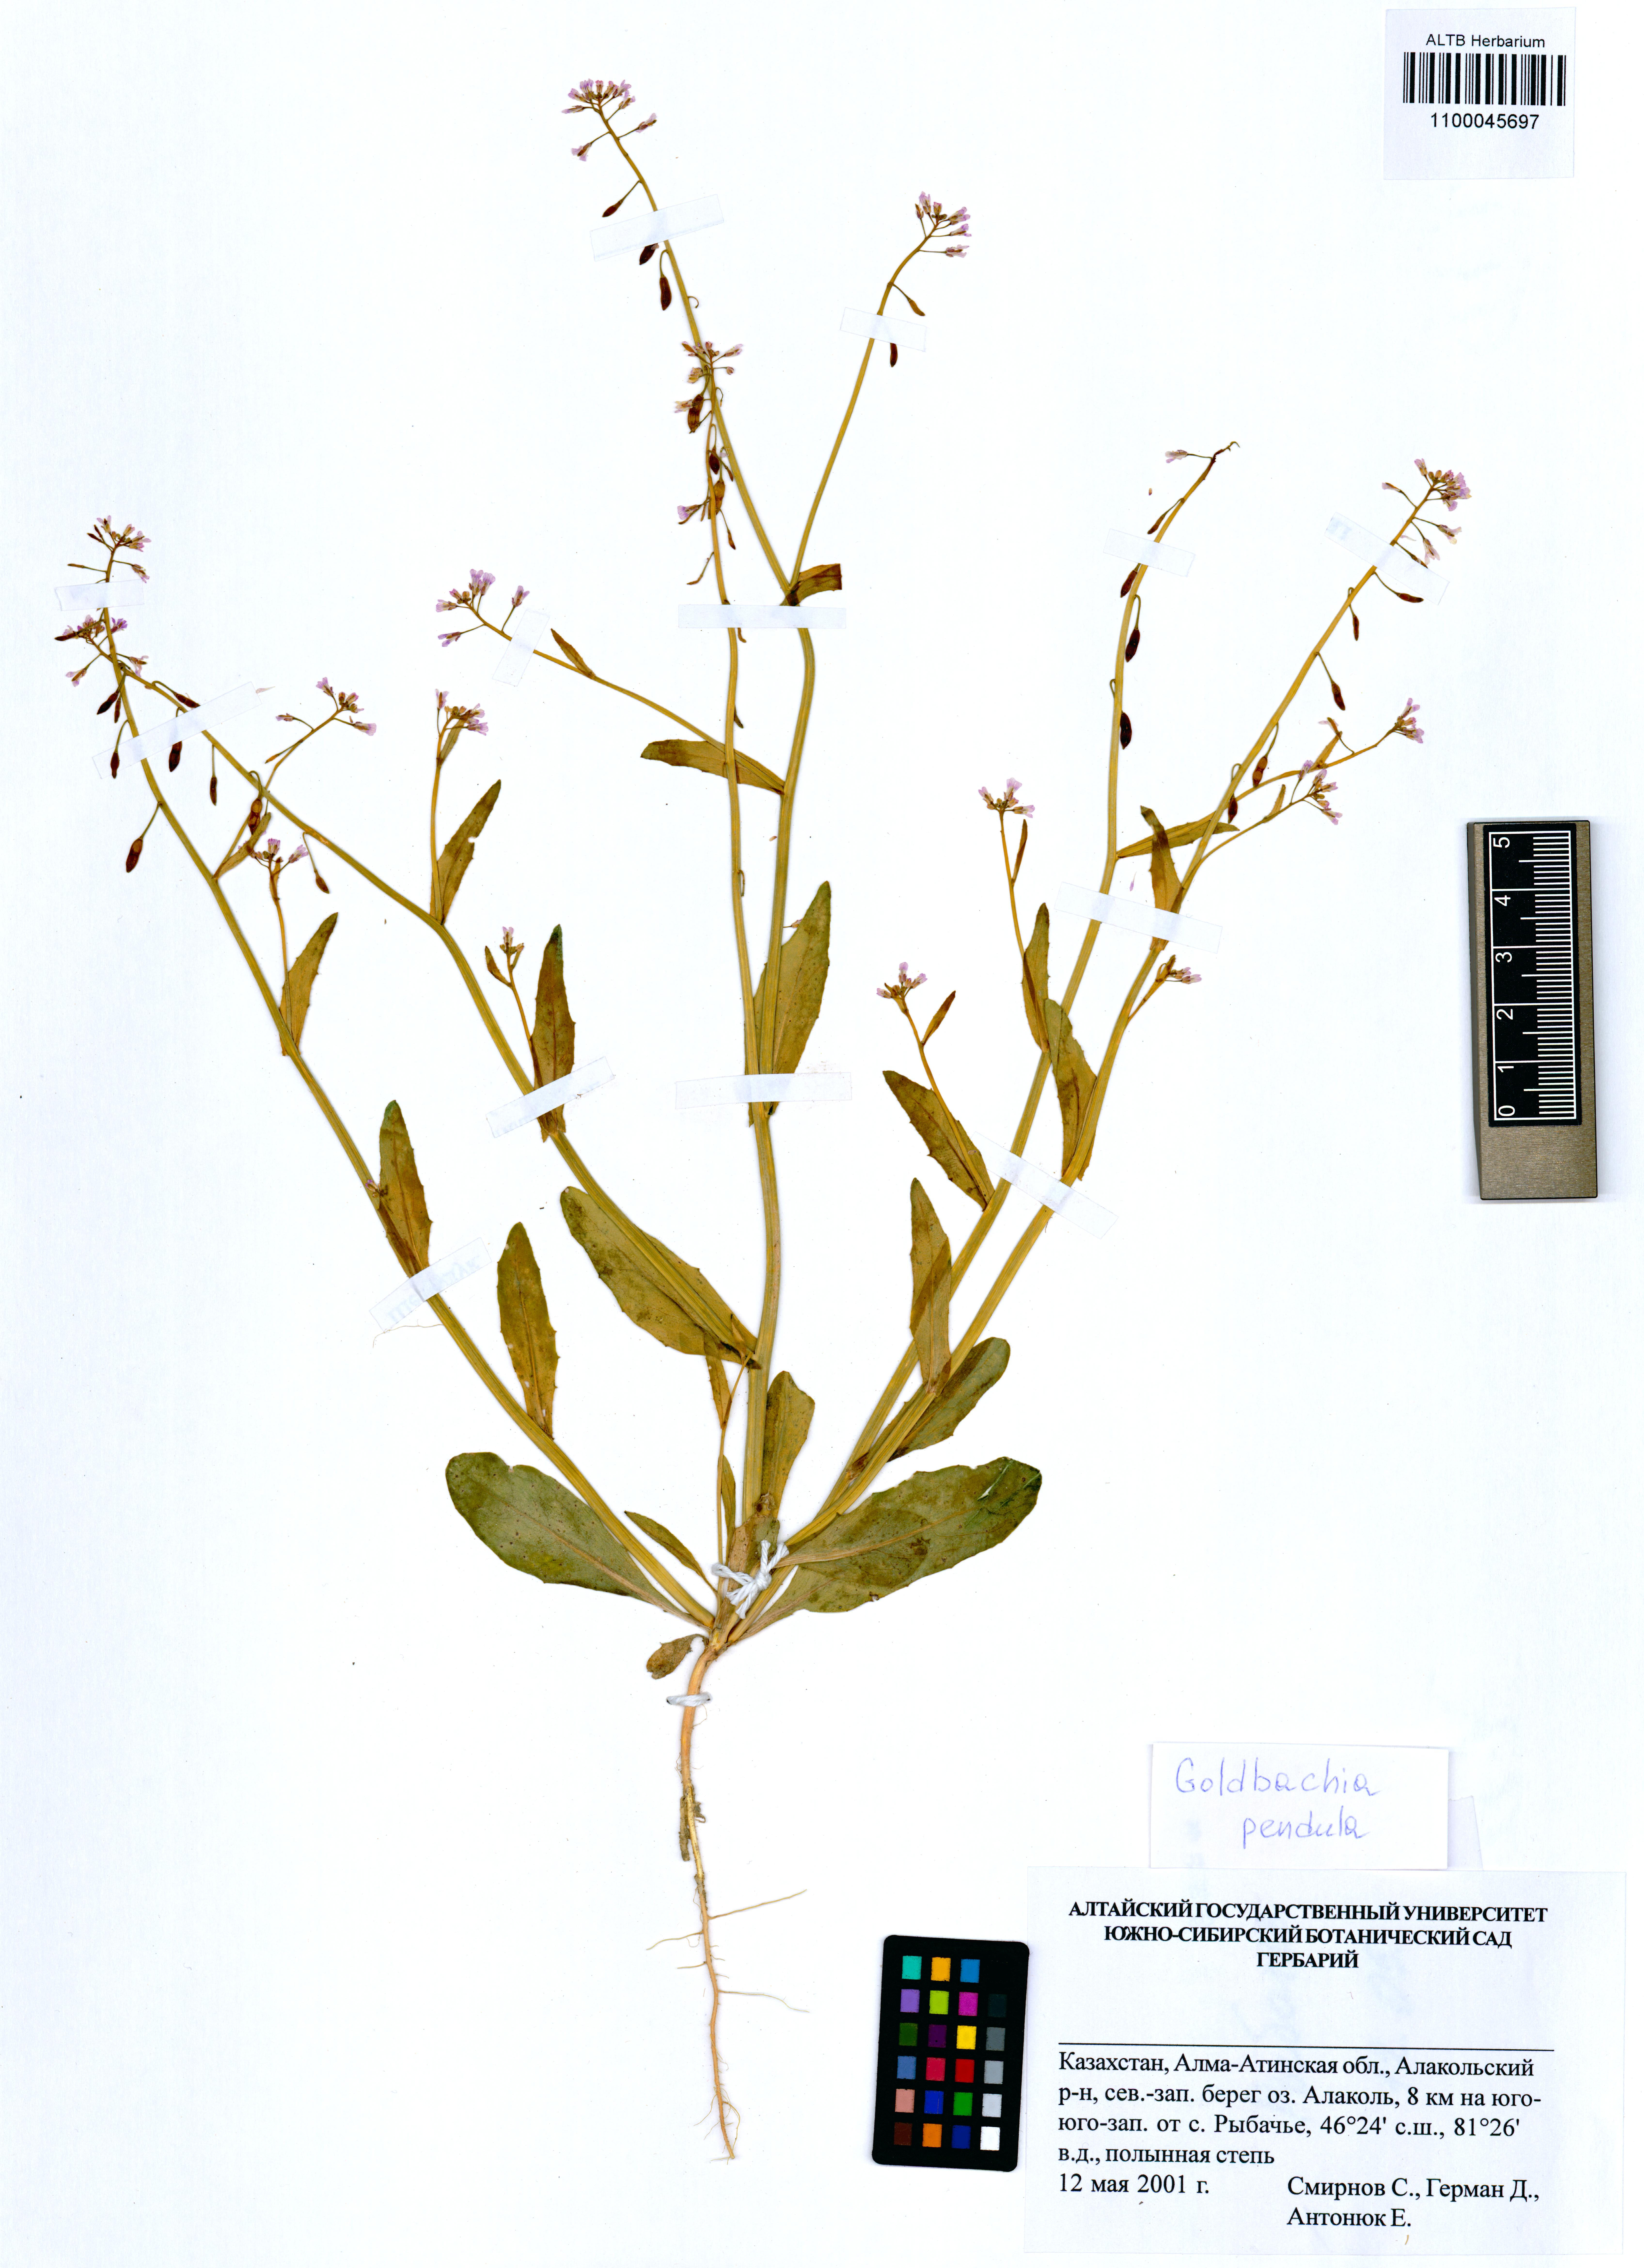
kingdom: Plantae
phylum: Tracheophyta
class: Magnoliopsida
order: Brassicales
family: Brassicaceae
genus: Goldbachia
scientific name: Goldbachia pendula
